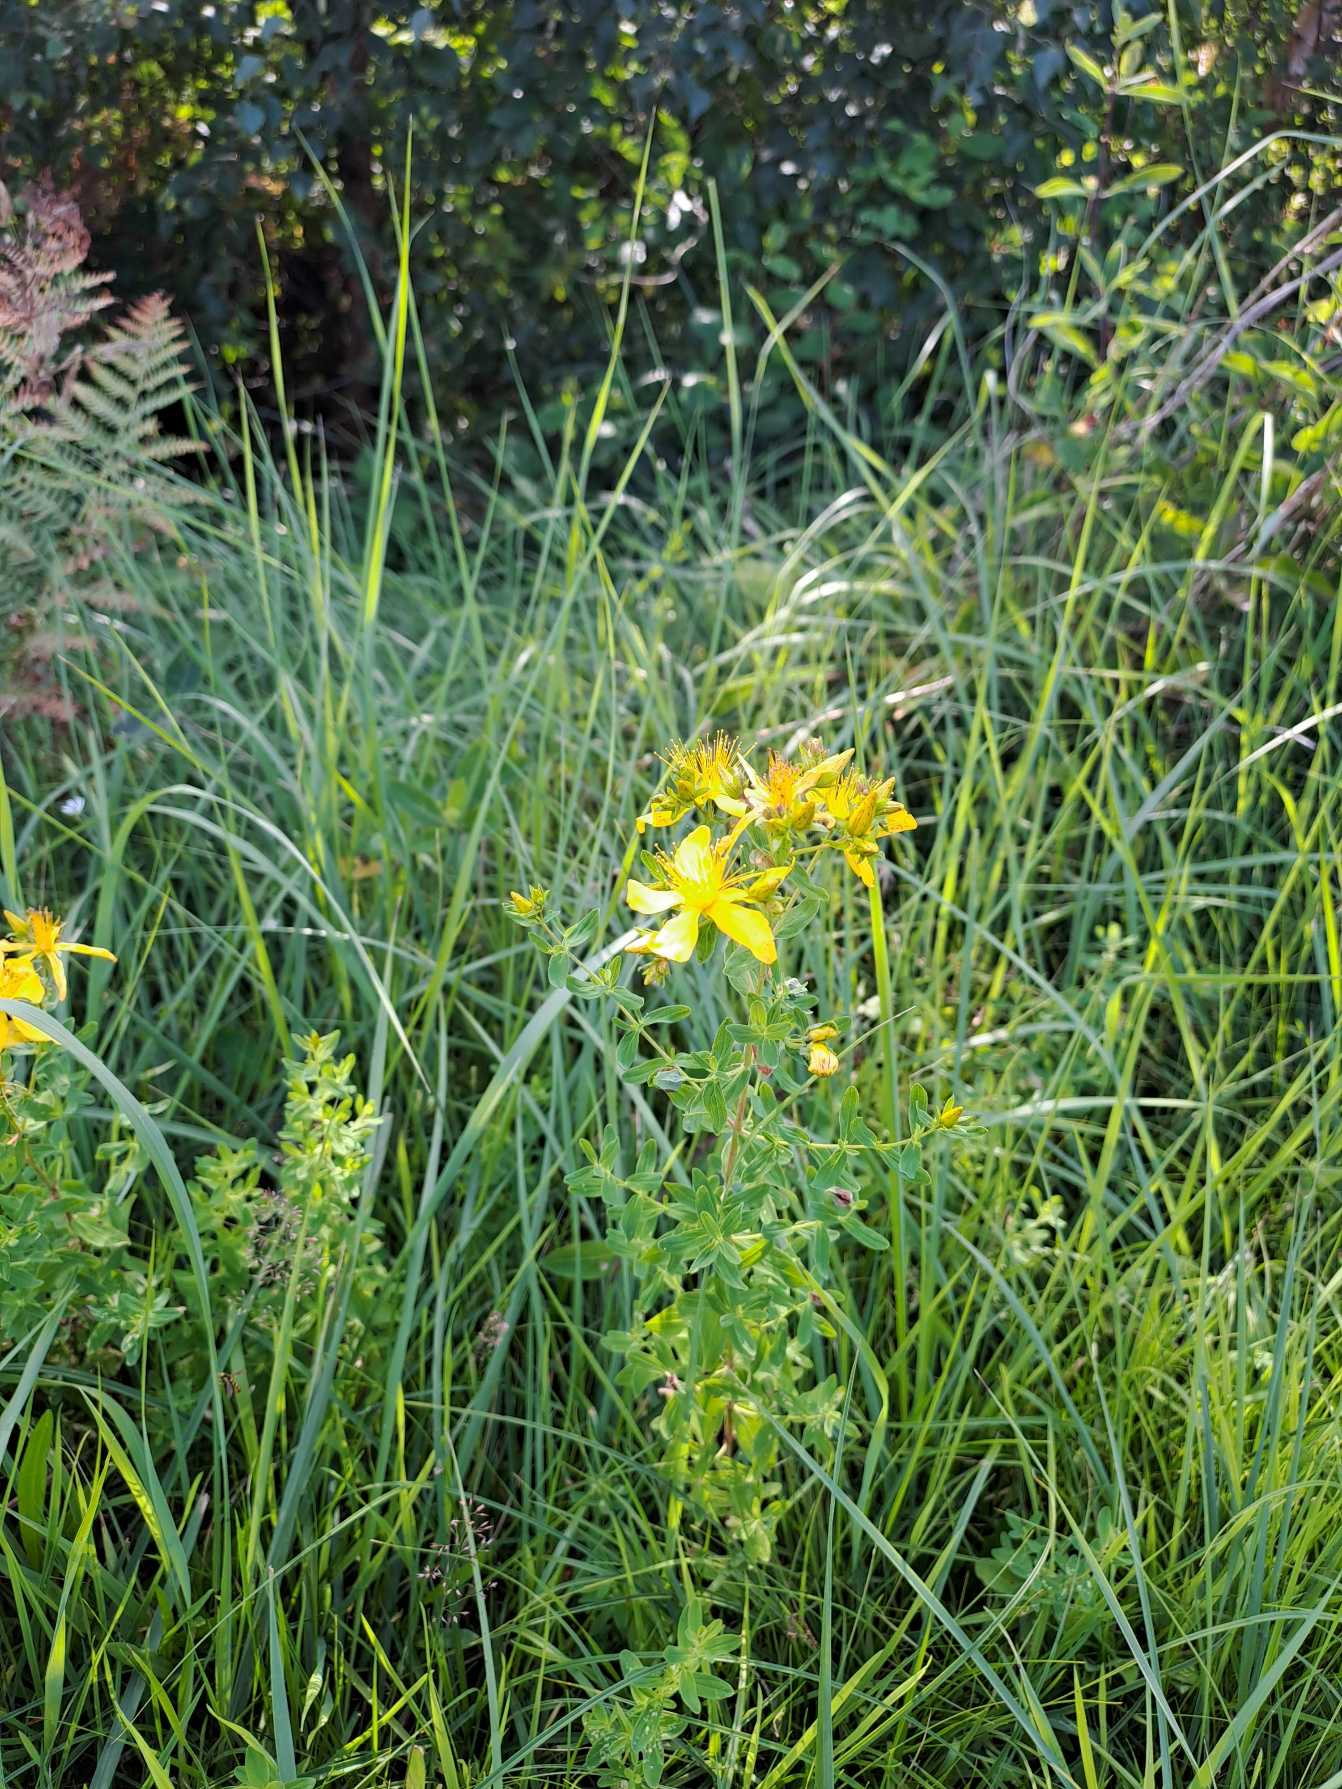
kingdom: Plantae
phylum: Tracheophyta
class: Magnoliopsida
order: Malpighiales
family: Hypericaceae
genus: Hypericum
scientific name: Hypericum perforatum
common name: Prikbladet perikon
